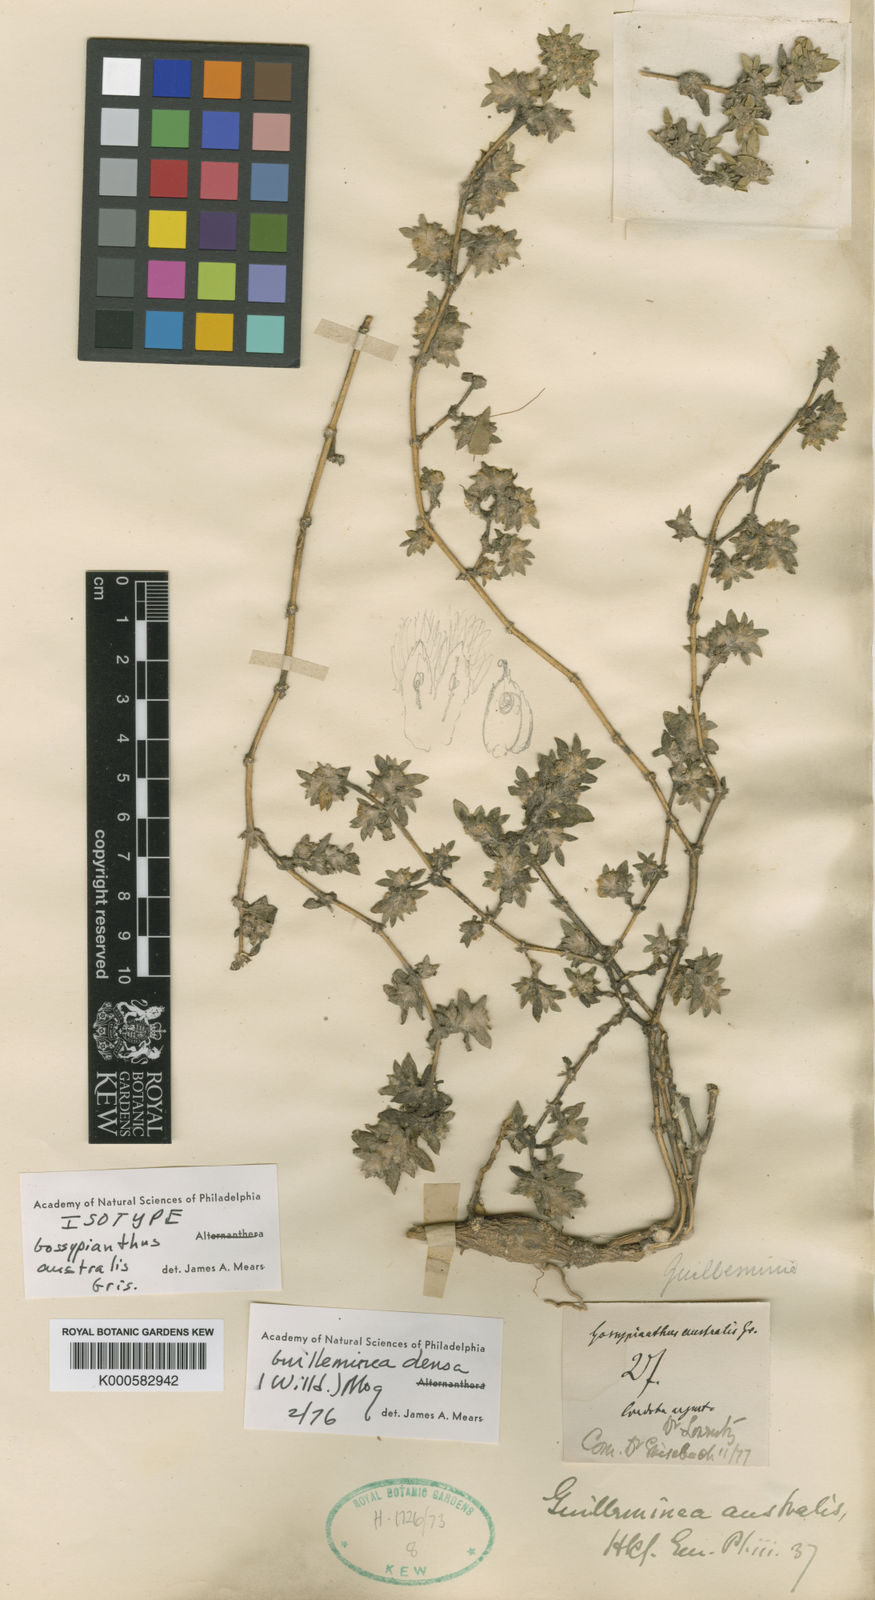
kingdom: Plantae
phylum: Tracheophyta
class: Magnoliopsida
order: Caryophyllales
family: Amaranthaceae
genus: Guilleminea
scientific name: Guilleminea densa
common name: Small matweed
